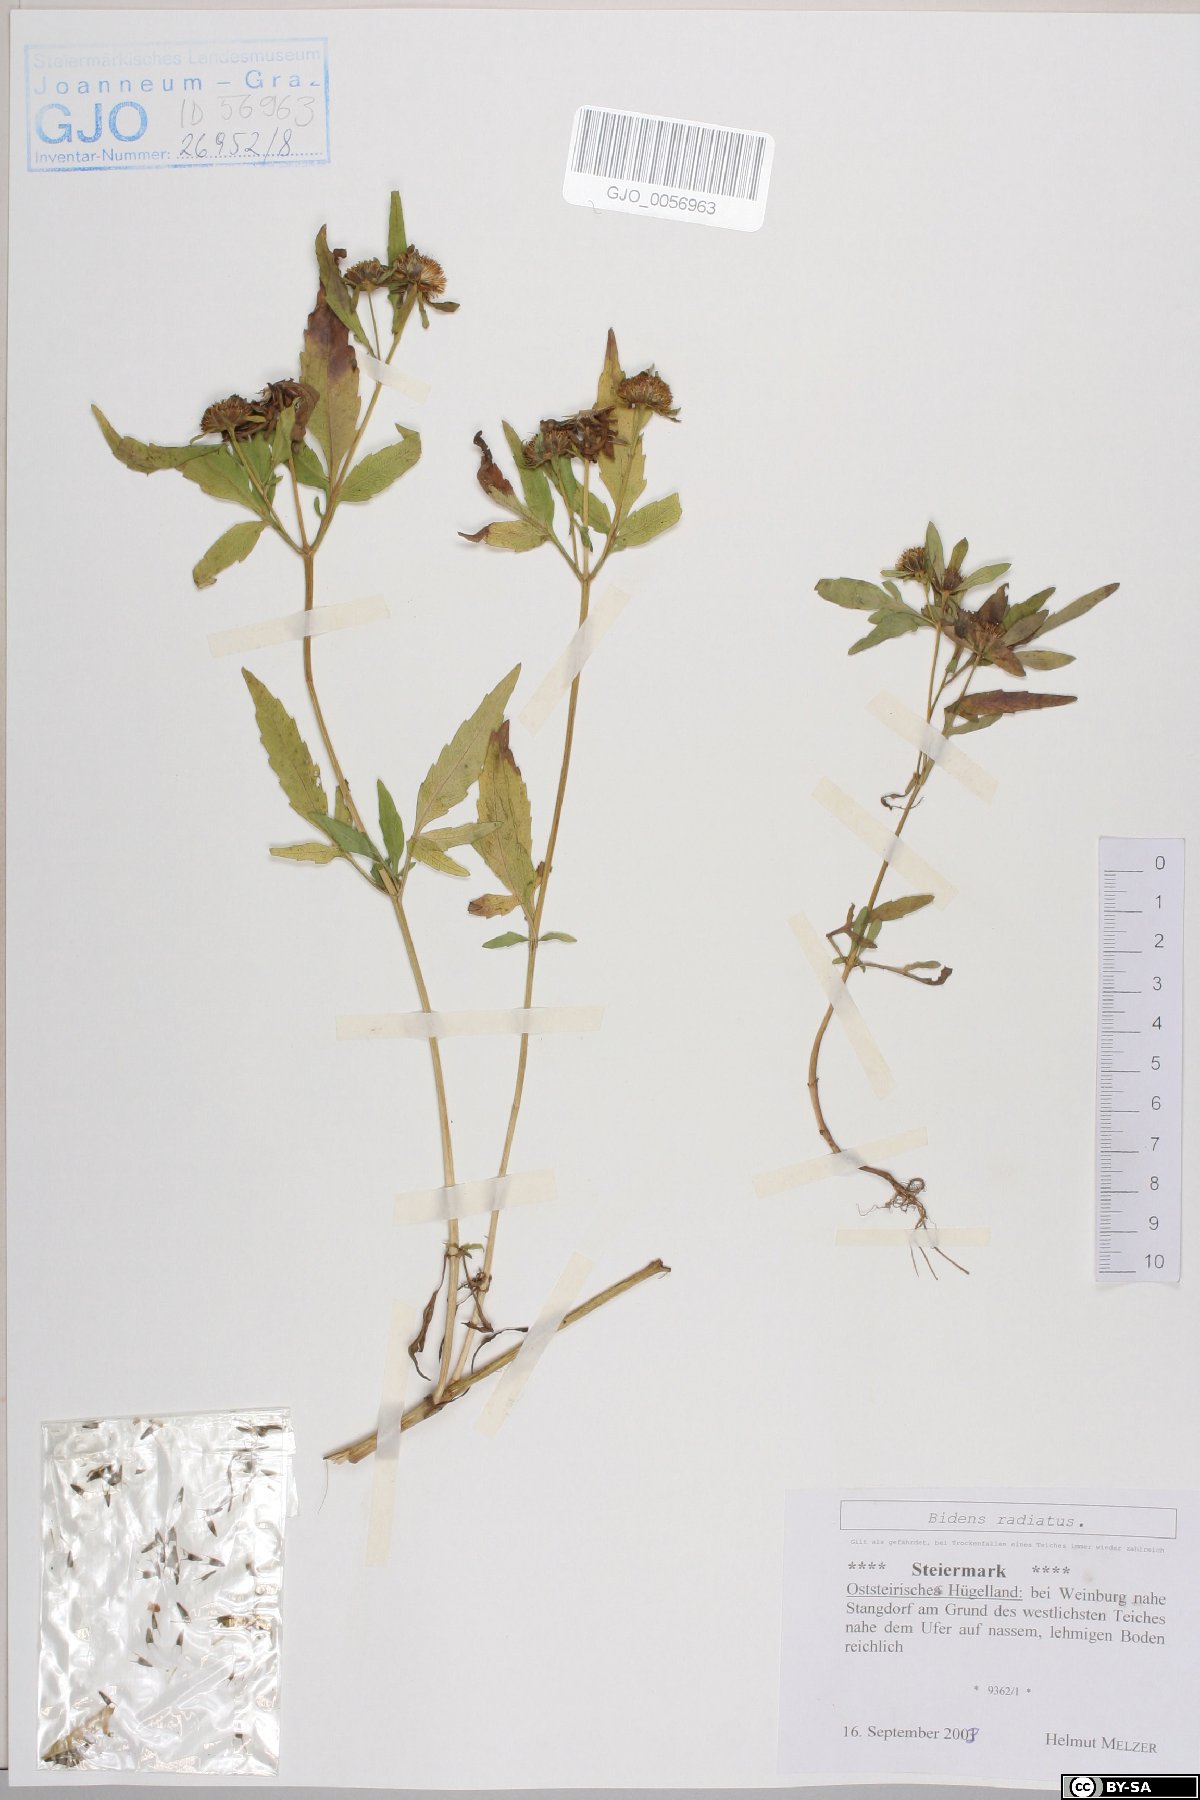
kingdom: Plantae
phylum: Tracheophyta
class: Magnoliopsida
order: Asterales
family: Asteraceae
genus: Bidens
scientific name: Bidens radiata
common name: Radiating bur-marigold
